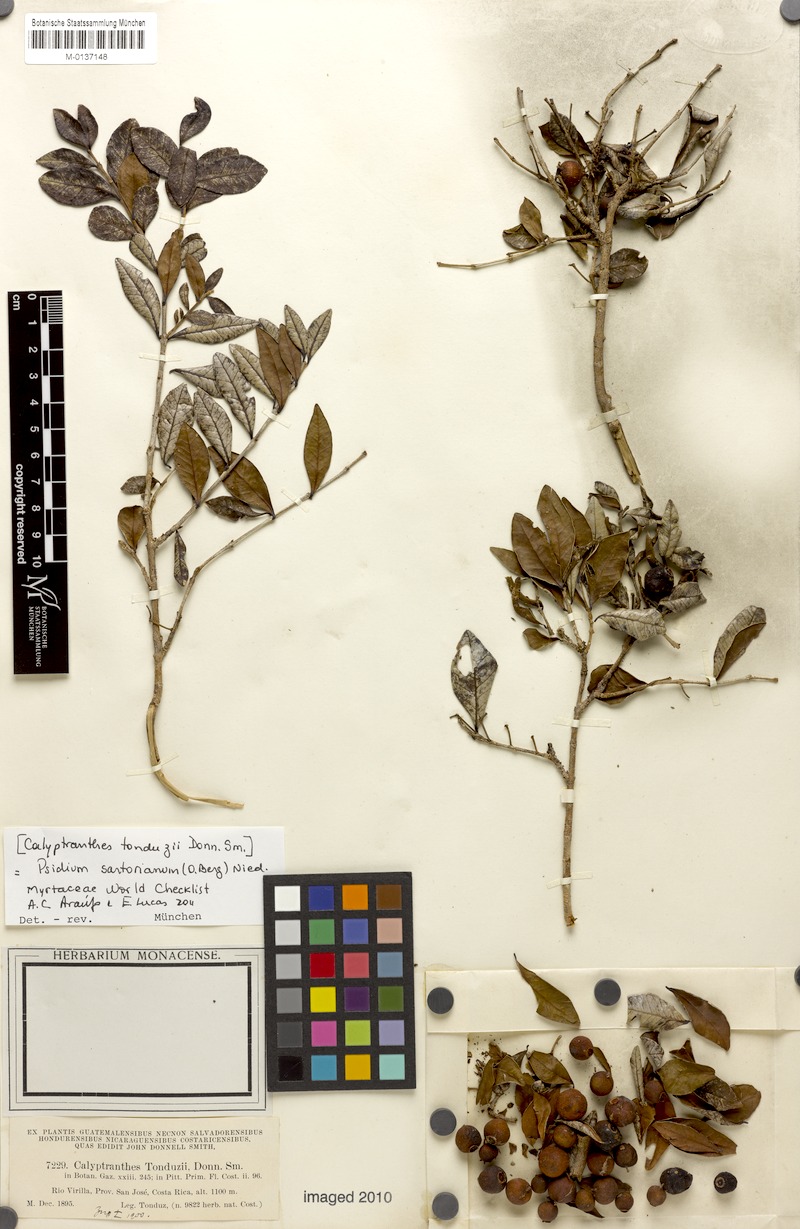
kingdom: Plantae
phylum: Tracheophyta
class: Magnoliopsida
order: Myrtales
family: Myrtaceae
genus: Psidium
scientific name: Psidium sartorianum
